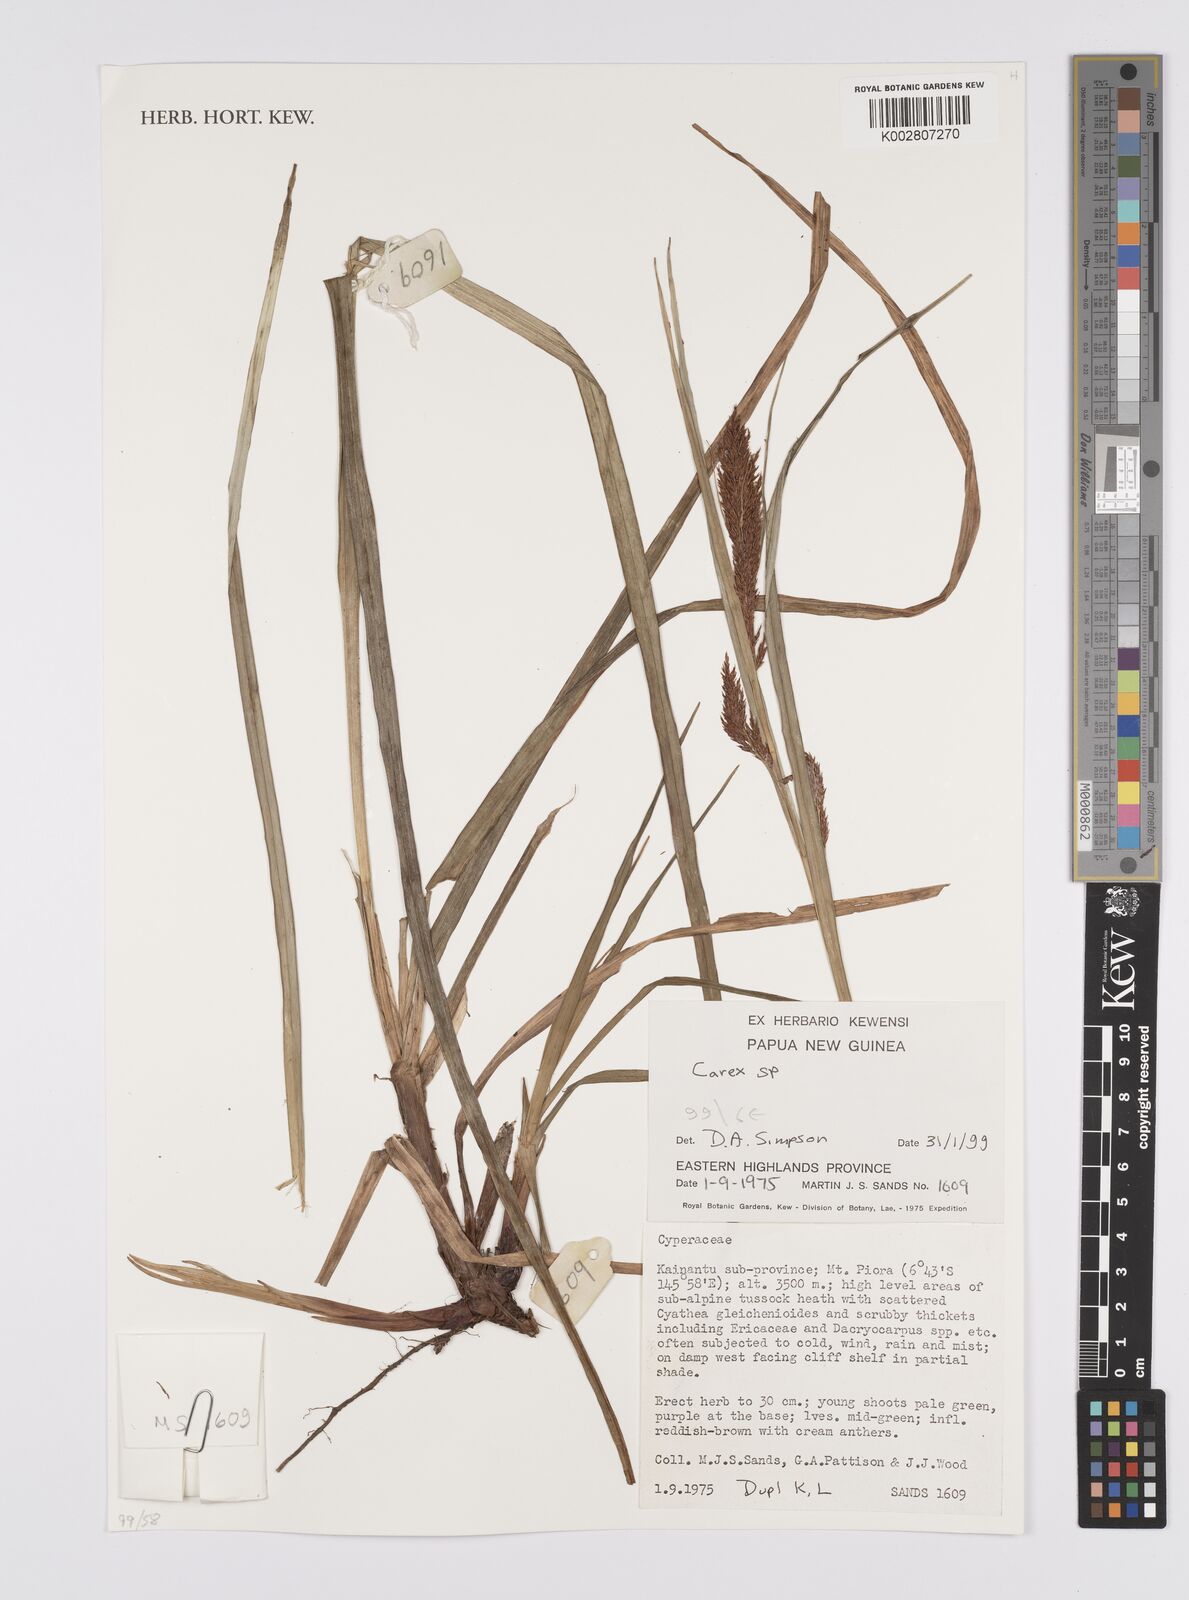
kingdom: Plantae
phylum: Tracheophyta
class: Liliopsida
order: Poales
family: Cyperaceae
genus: Carex
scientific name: Carex
